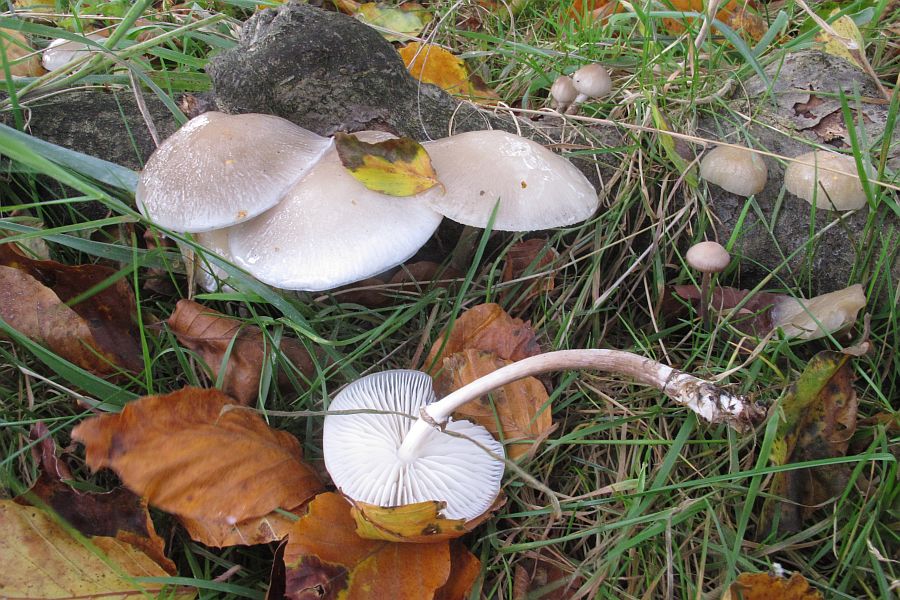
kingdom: Fungi
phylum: Basidiomycota
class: Agaricomycetes
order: Agaricales
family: Physalacriaceae
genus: Mucidula
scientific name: Mucidula mucida
